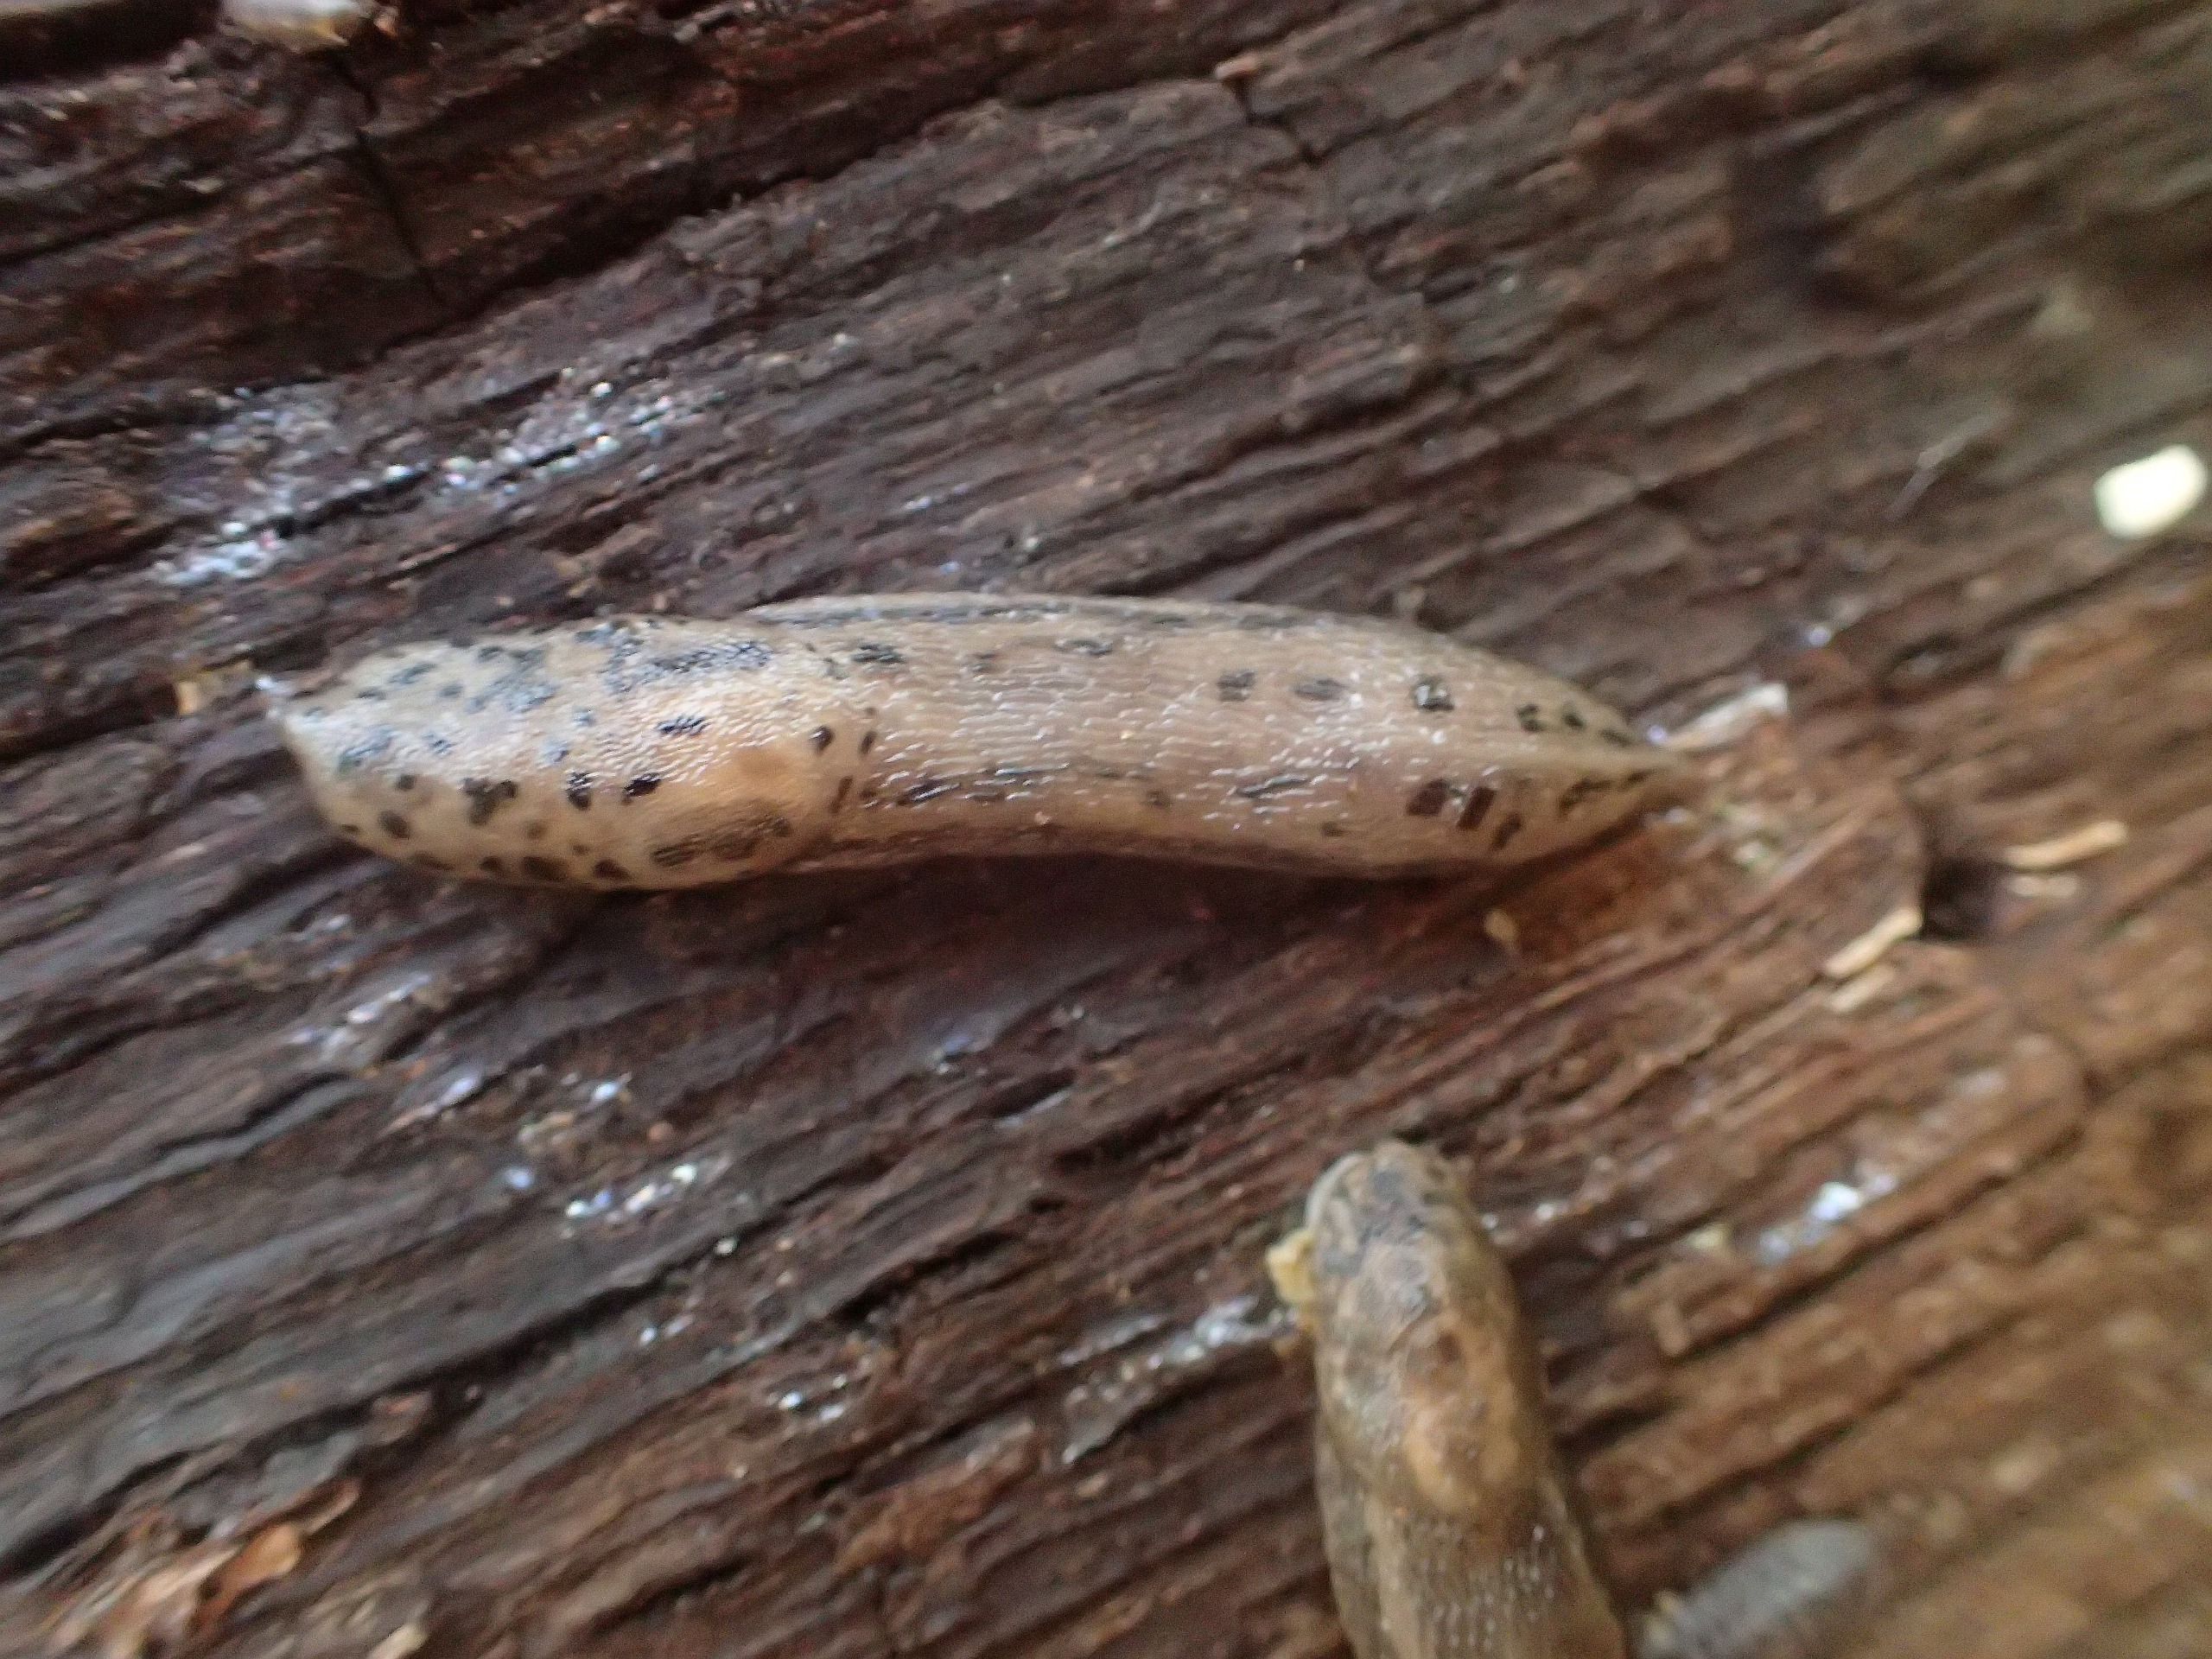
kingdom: Animalia
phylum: Mollusca
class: Gastropoda
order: Stylommatophora
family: Limacidae
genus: Limax
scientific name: Limax maximus
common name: Pantersnegl
